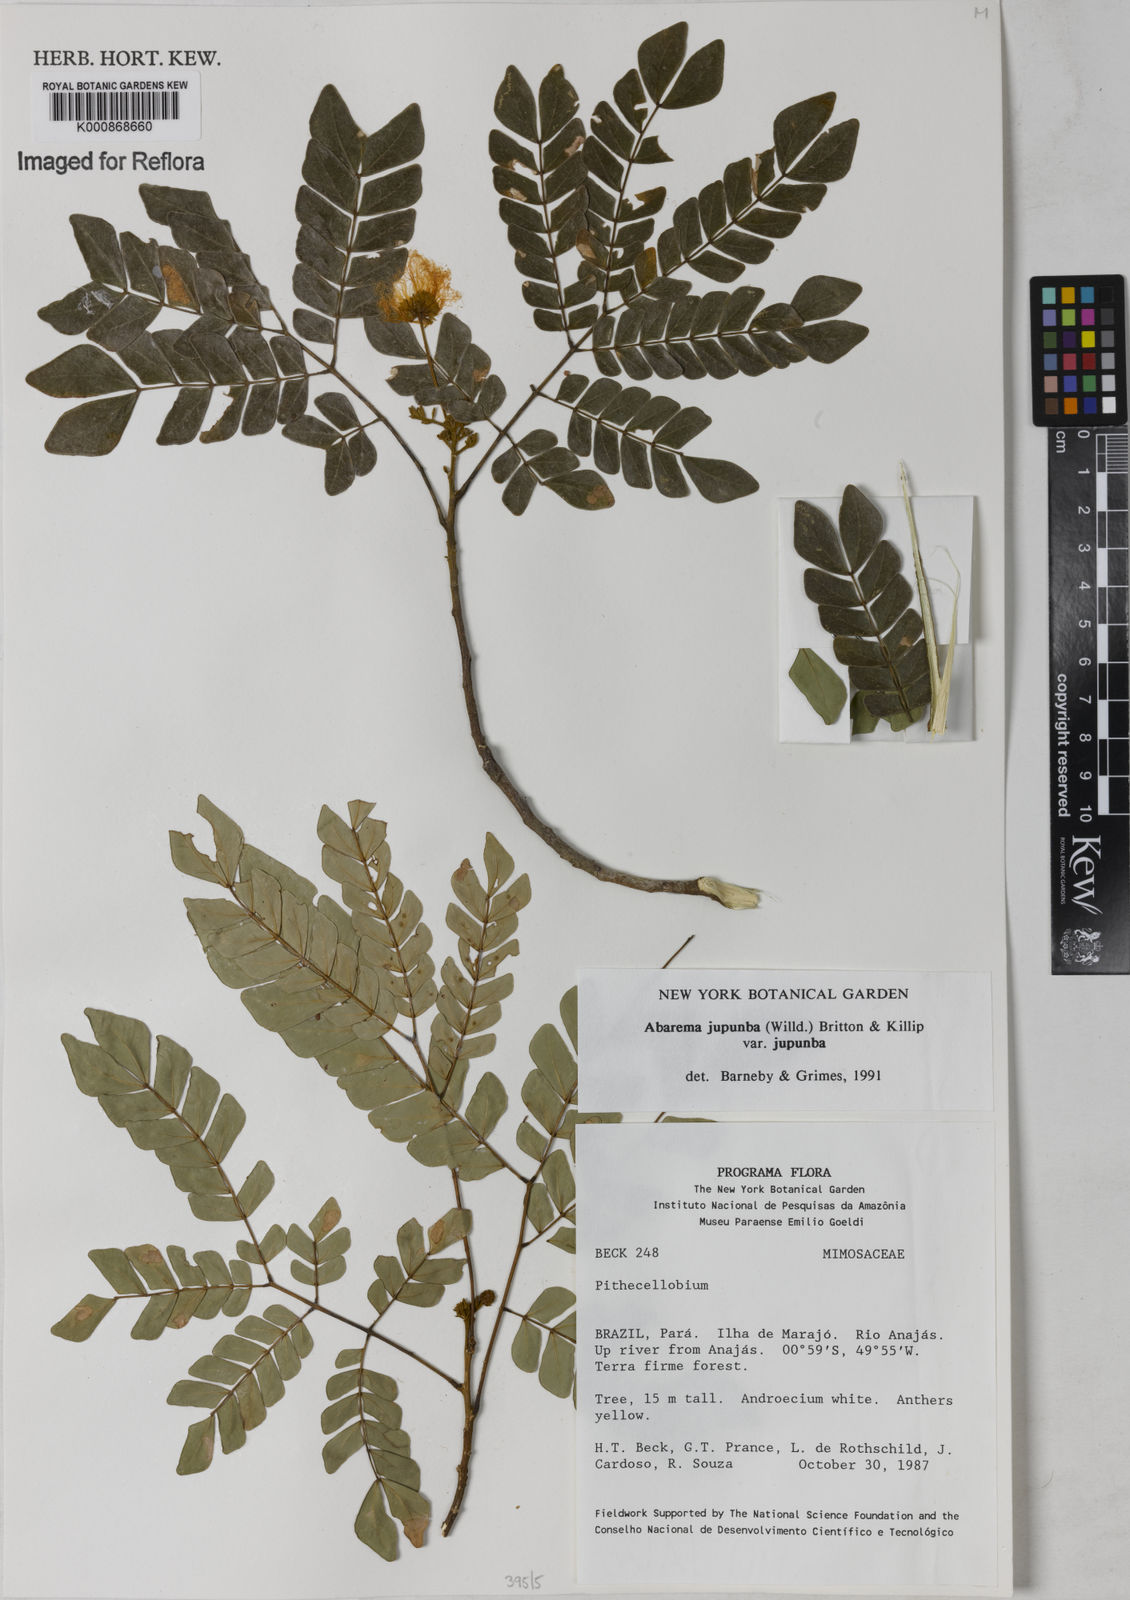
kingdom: Plantae
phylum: Tracheophyta
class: Magnoliopsida
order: Fabales
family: Fabaceae
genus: Jupunba
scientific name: Jupunba trapezifolia
